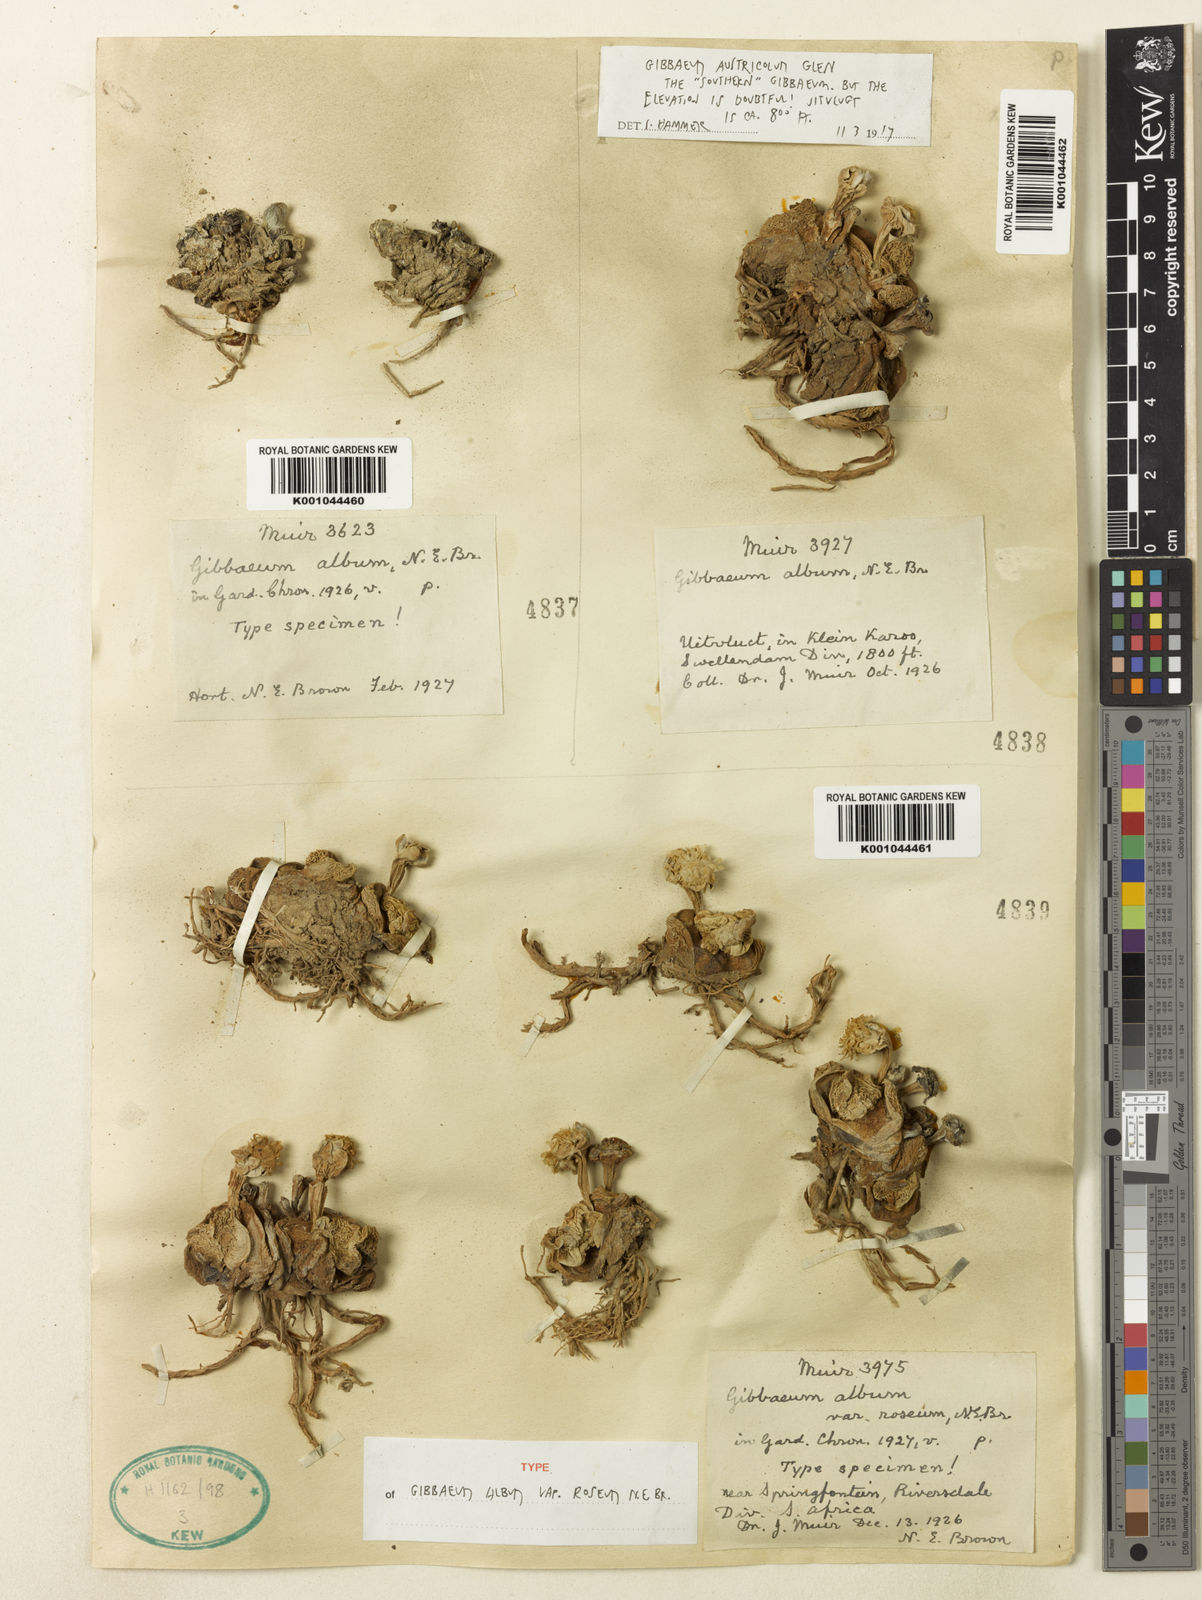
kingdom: Plantae
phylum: Tracheophyta
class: Magnoliopsida
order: Caryophyllales
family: Aizoaceae
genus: Gibbaeum
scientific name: Gibbaeum album
